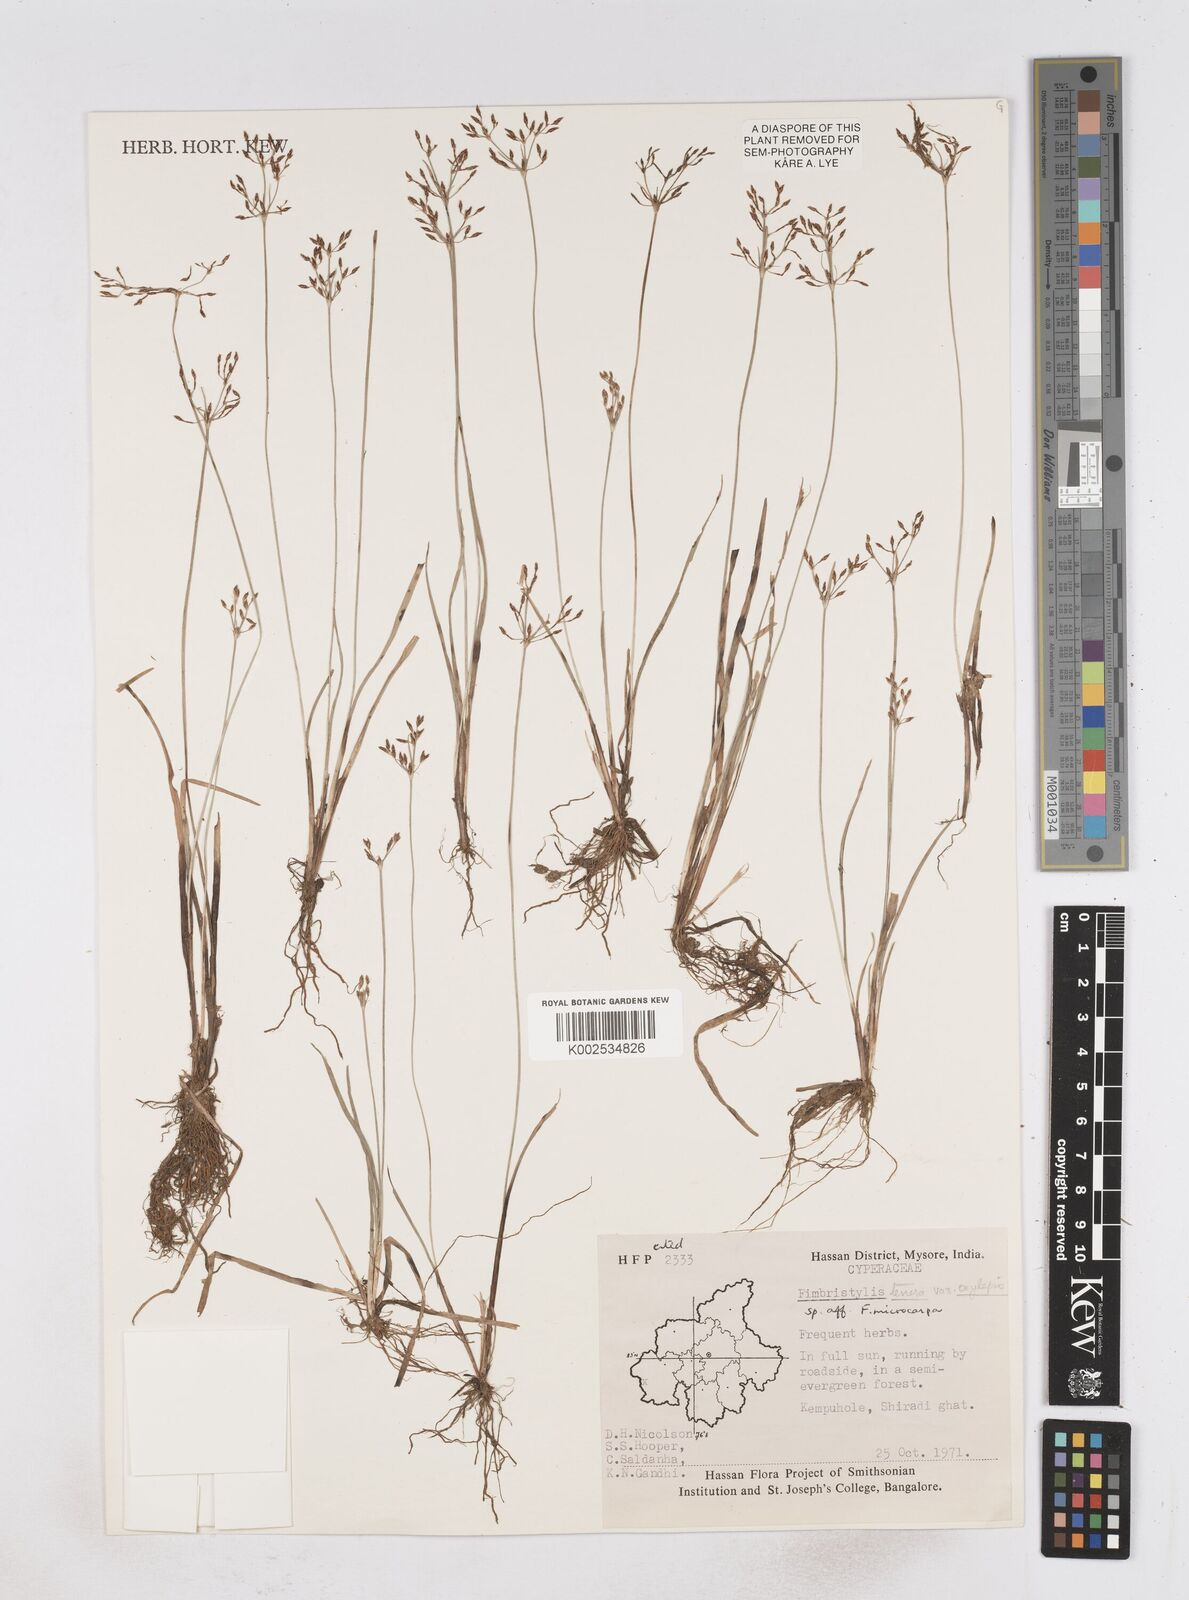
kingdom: Plantae
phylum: Tracheophyta
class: Liliopsida
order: Poales
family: Cyperaceae
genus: Fimbristylis
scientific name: Fimbristylis complanata
